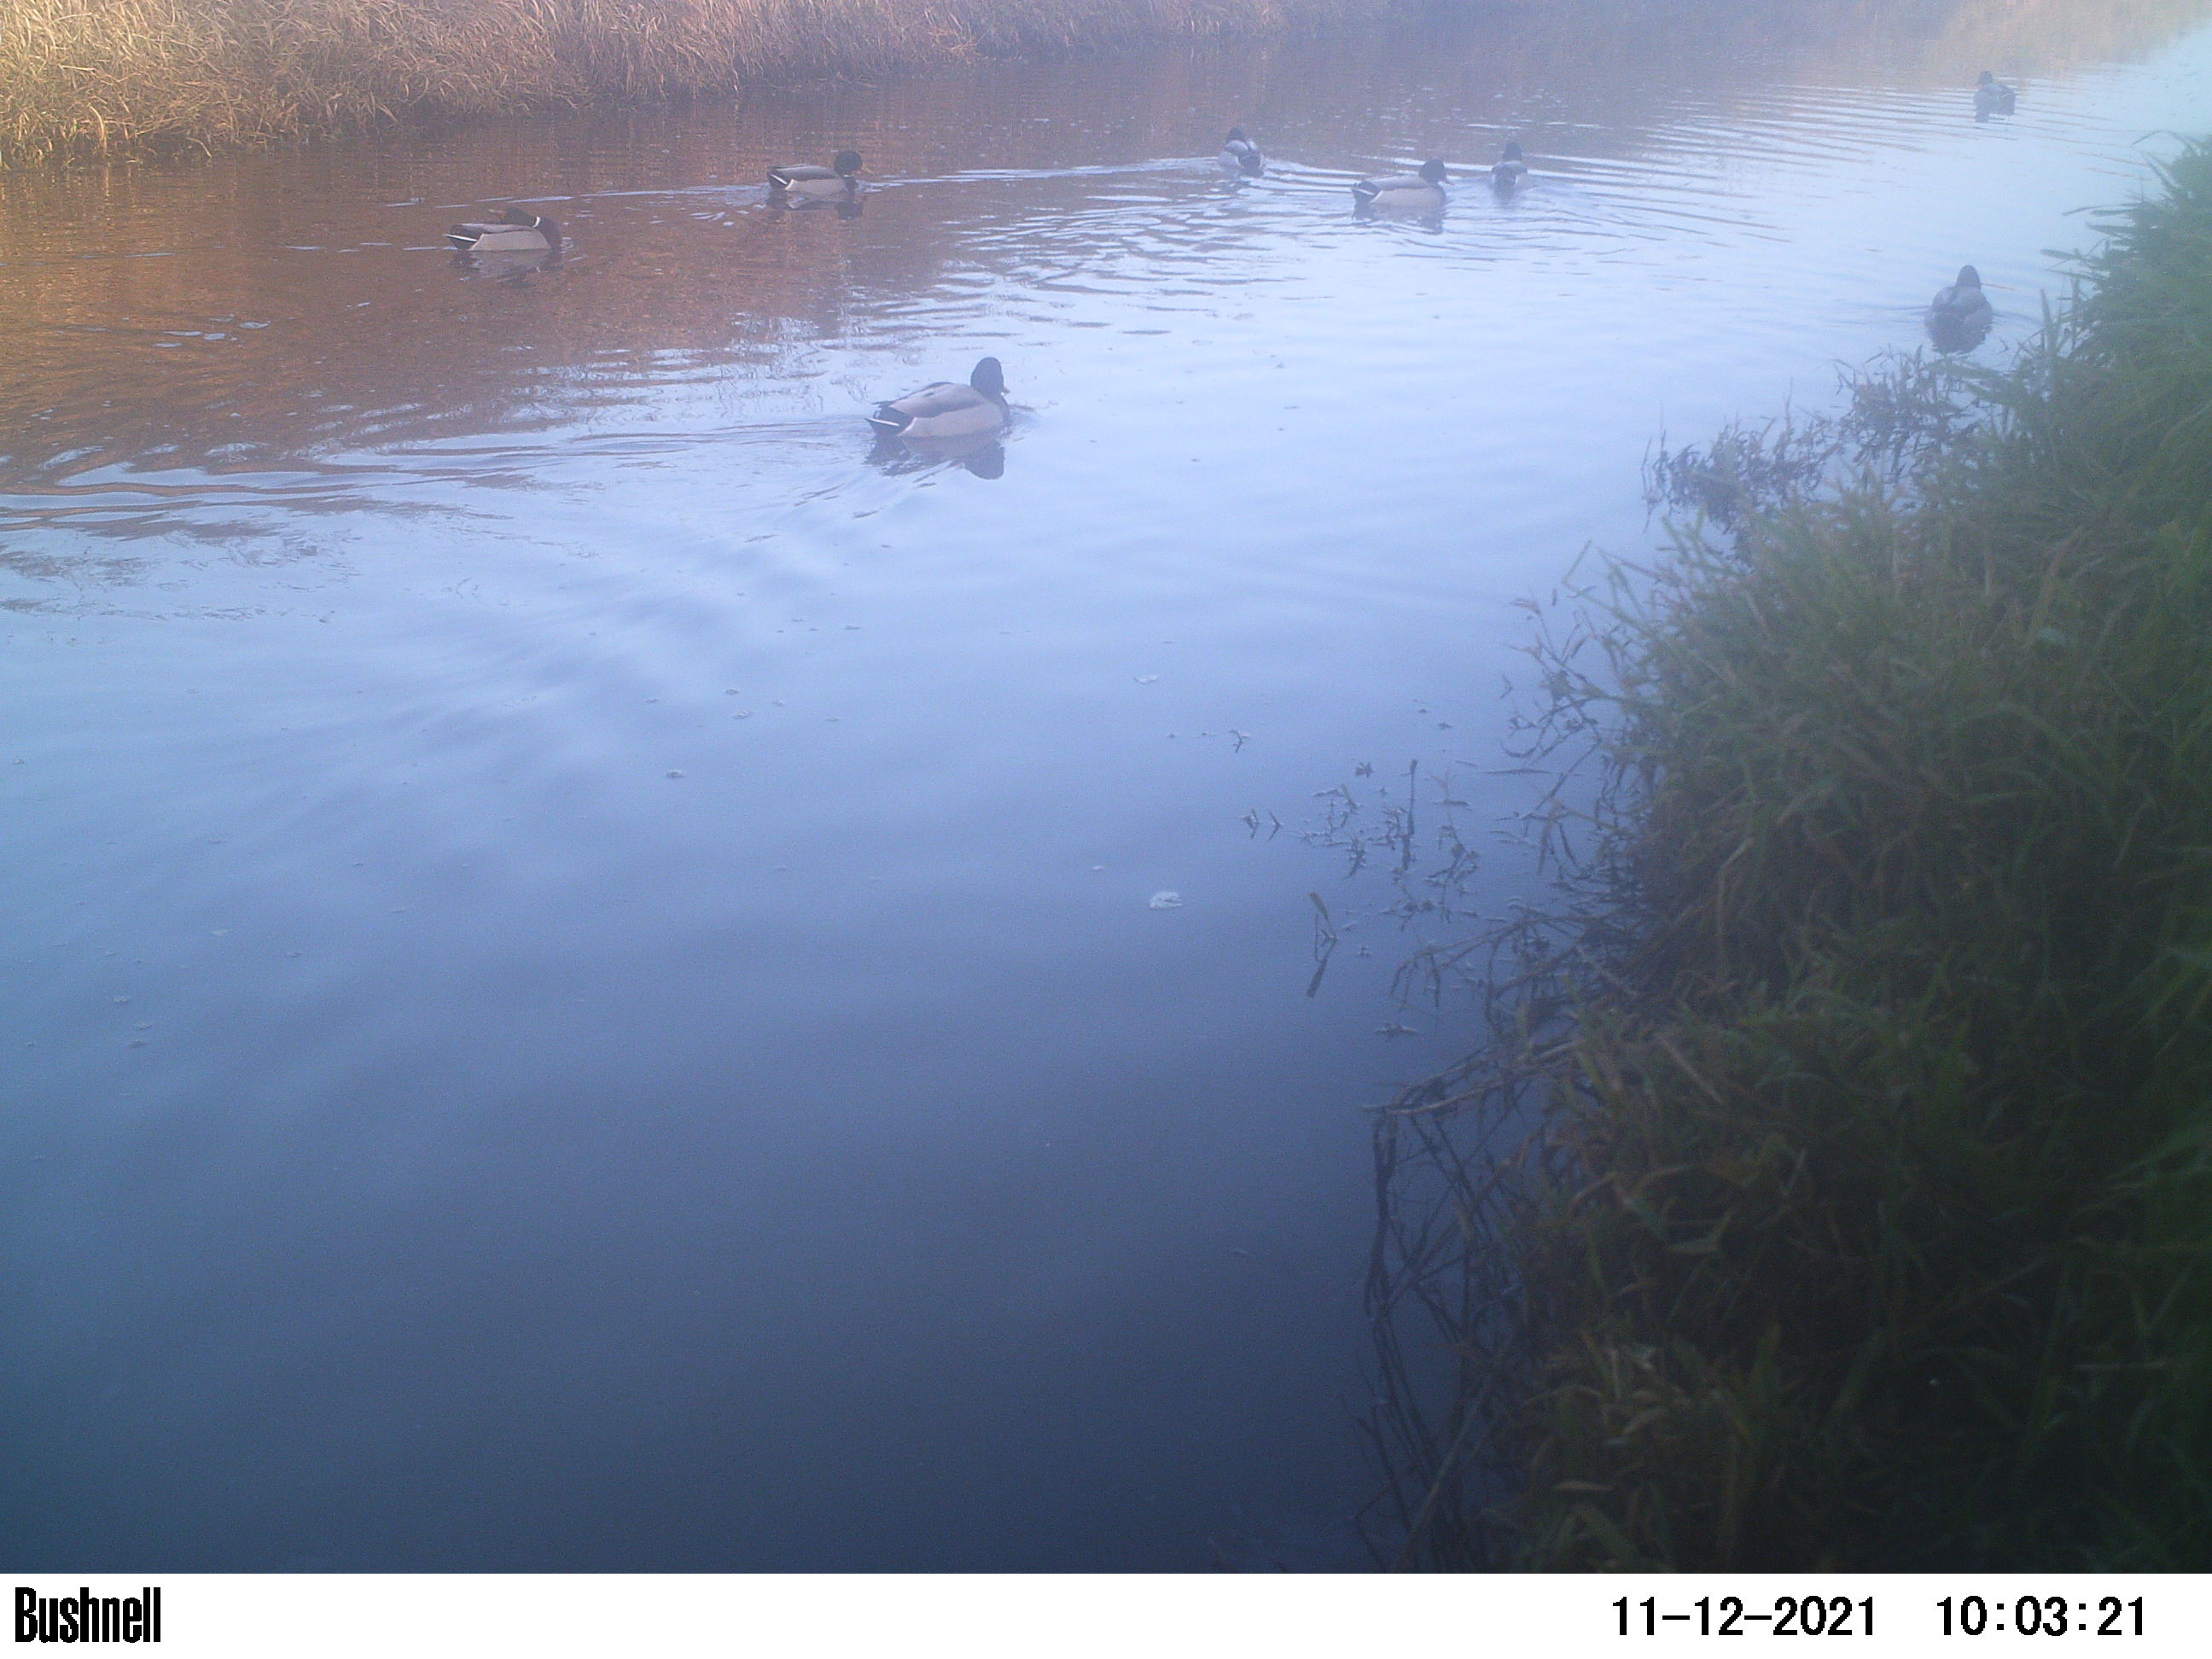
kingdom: Animalia
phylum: Chordata
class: Aves
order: Anseriformes
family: Anatidae
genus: Anas
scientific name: Anas
